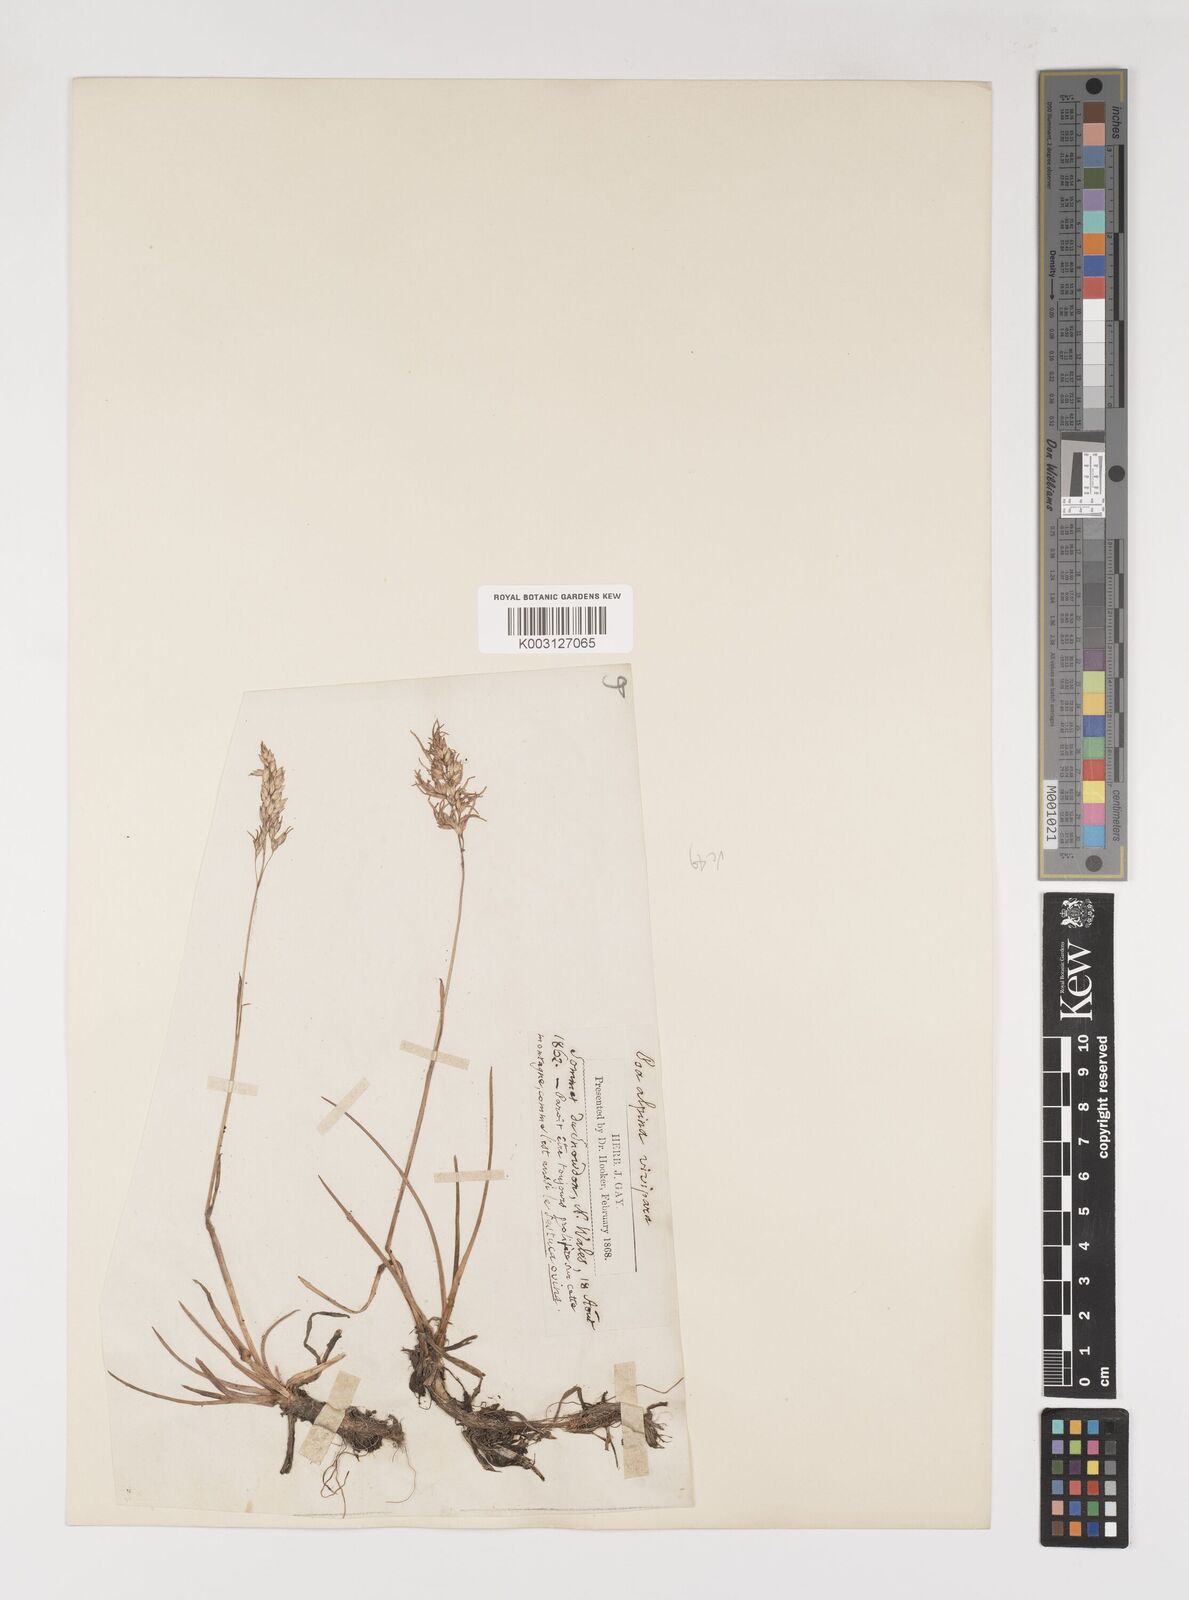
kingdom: Plantae
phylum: Tracheophyta
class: Liliopsida
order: Poales
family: Poaceae
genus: Poa
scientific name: Poa alpina
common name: Alpine bluegrass
